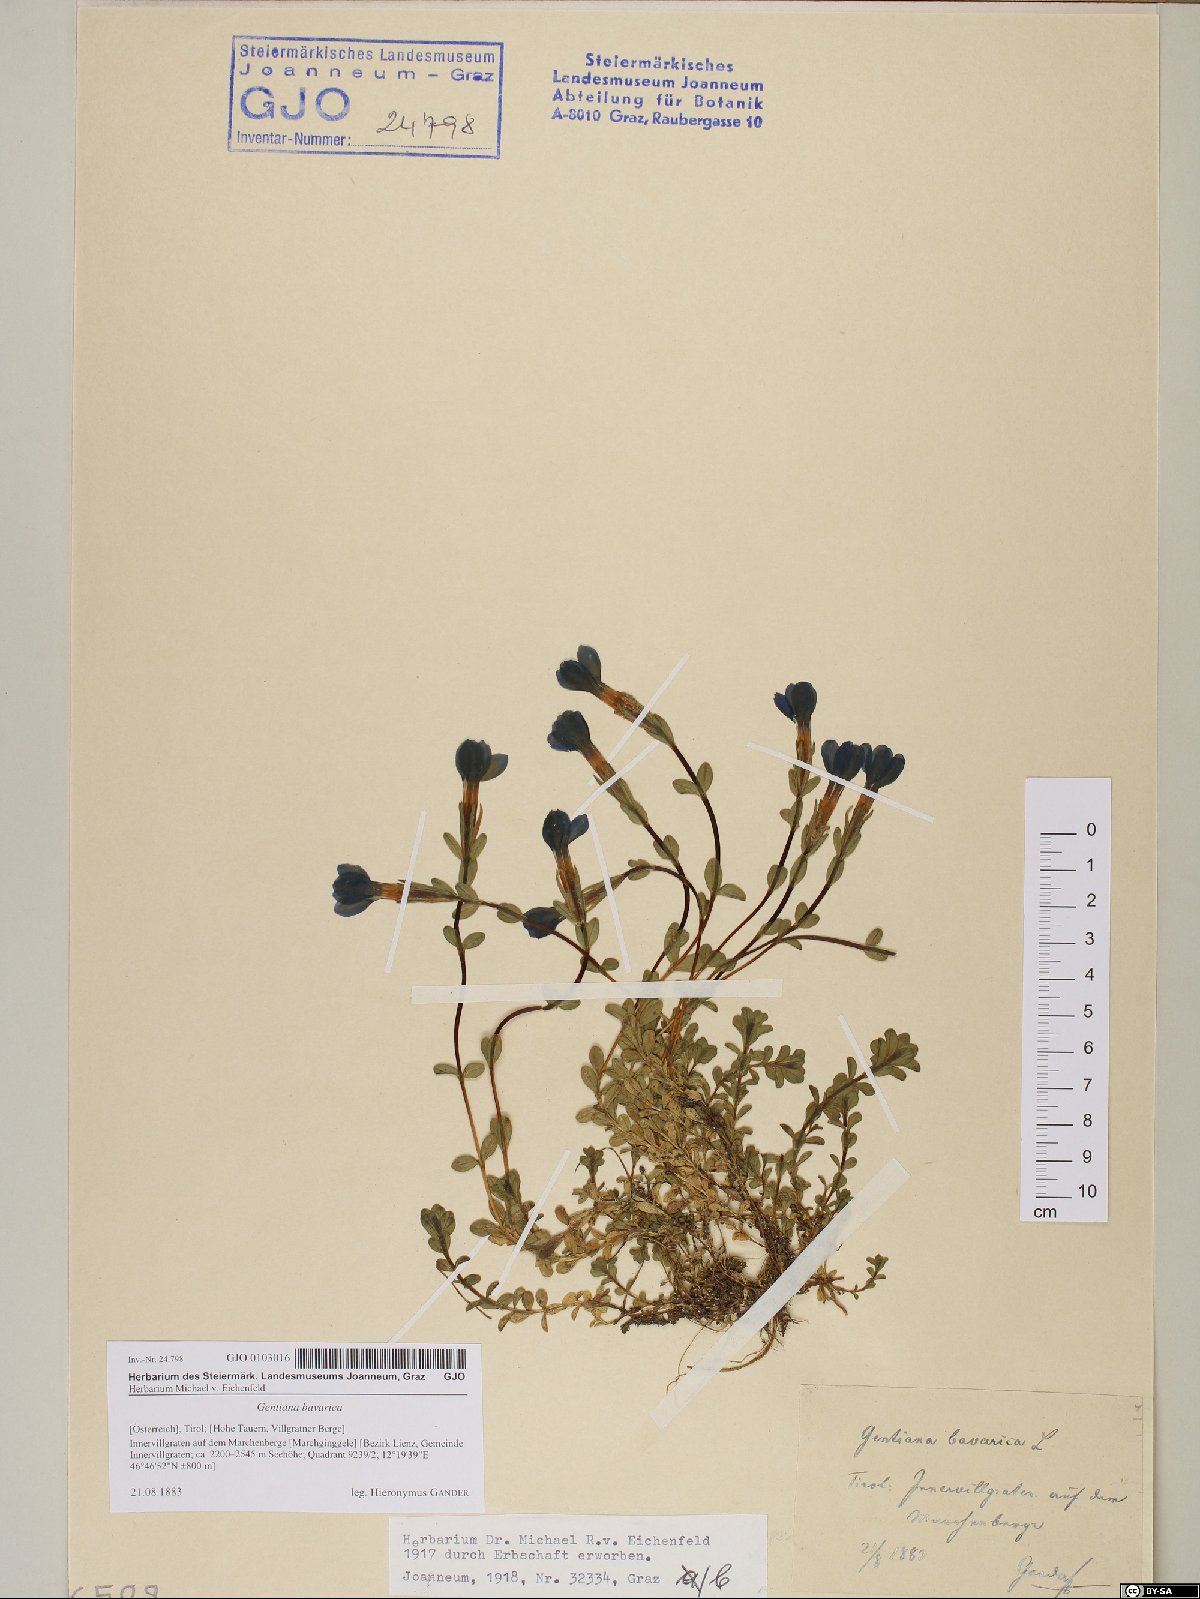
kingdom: Plantae
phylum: Tracheophyta
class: Magnoliopsida
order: Gentianales
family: Gentianaceae
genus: Gentiana
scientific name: Gentiana bavarica
